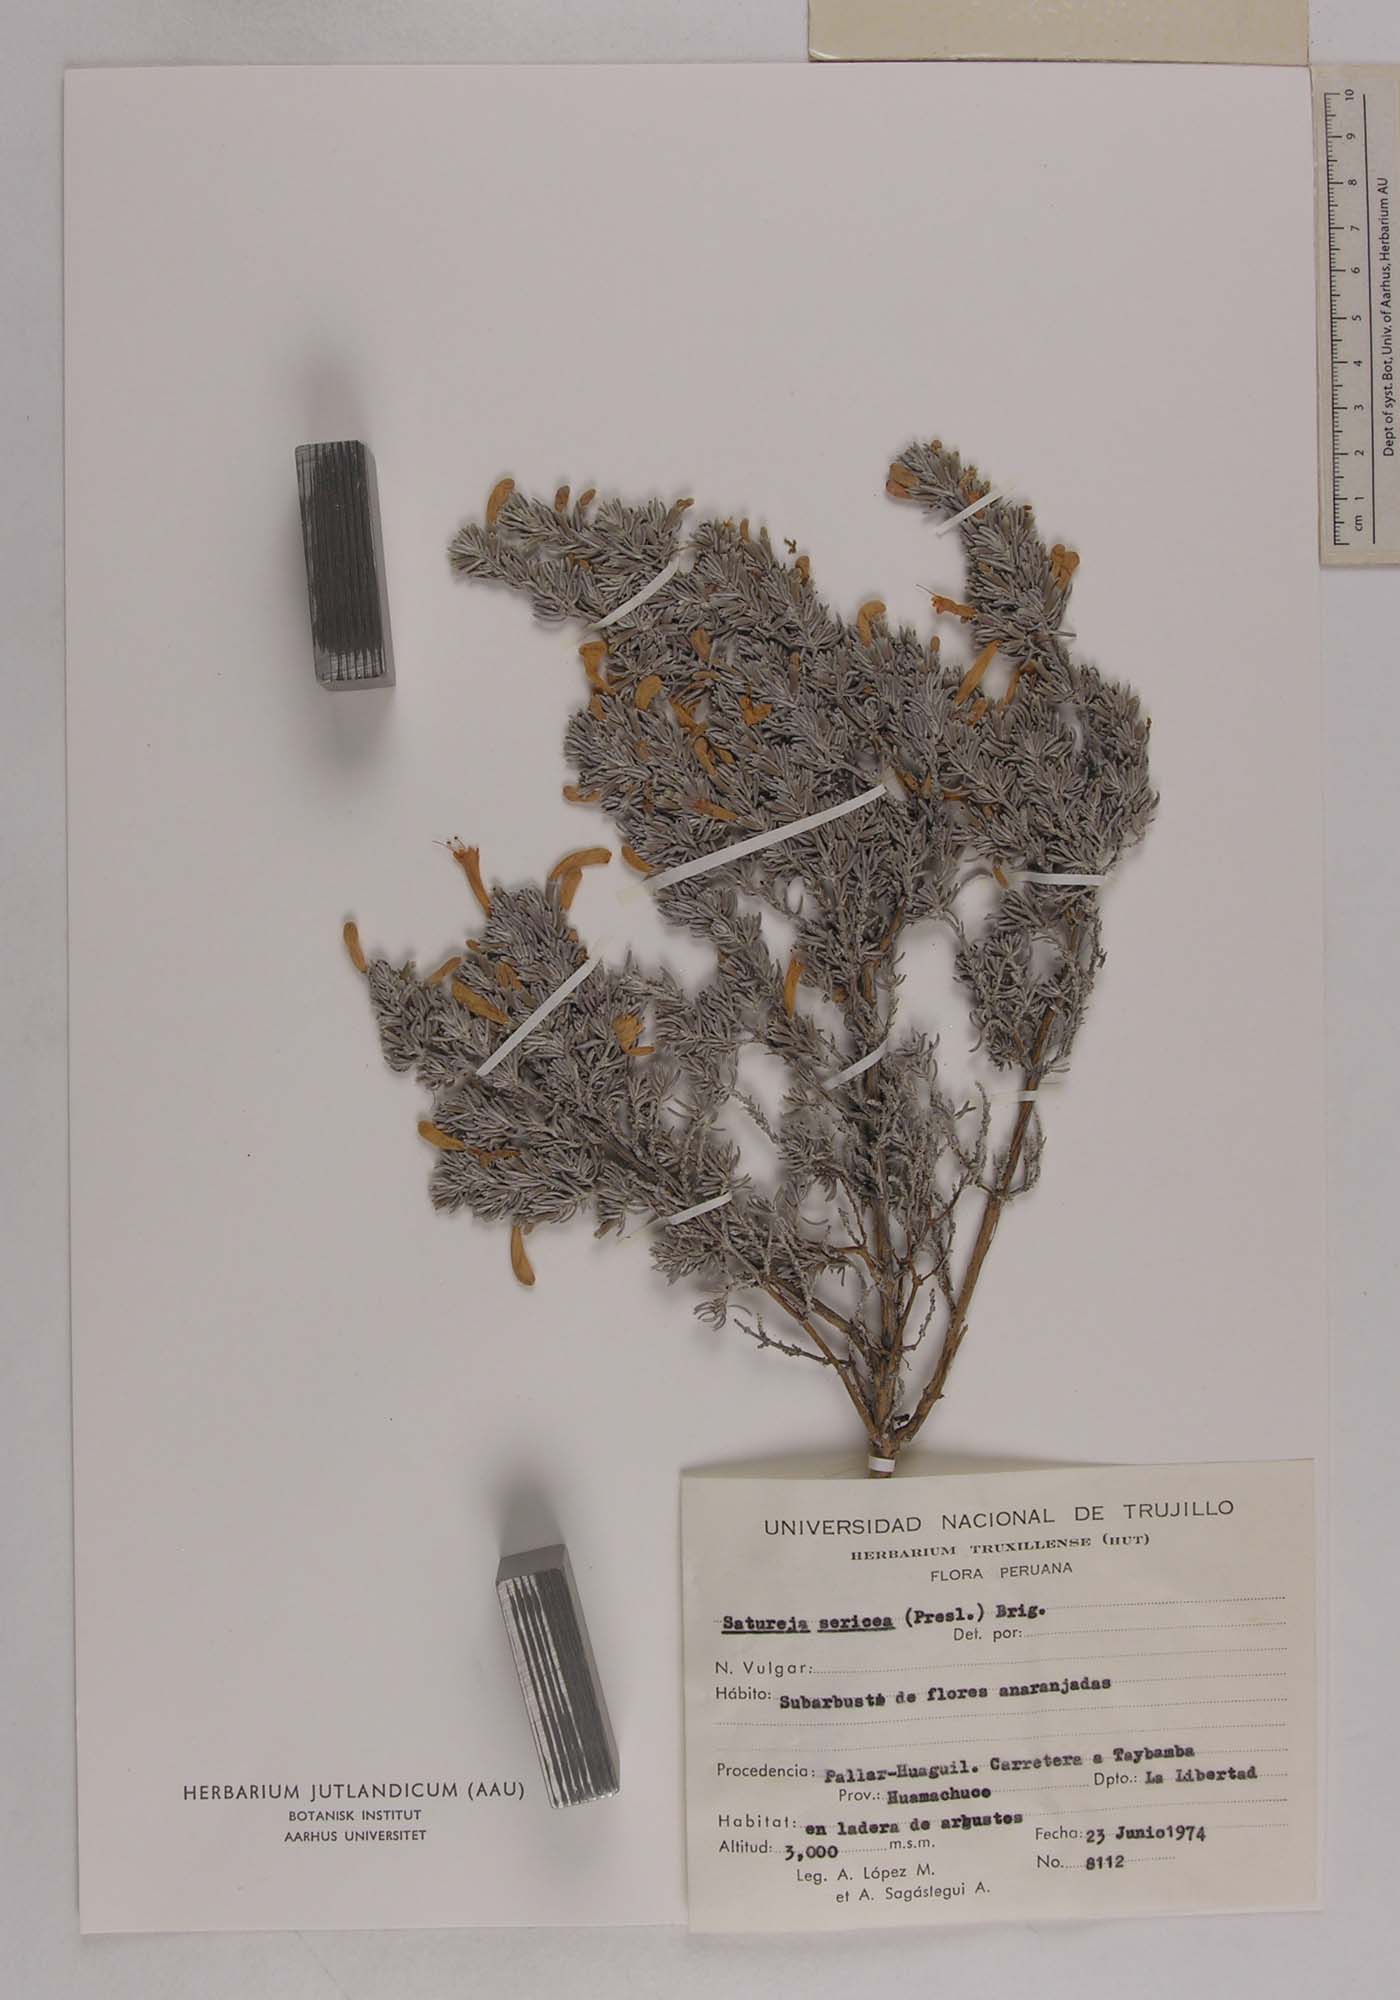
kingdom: Plantae
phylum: Tracheophyta
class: Magnoliopsida
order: Lamiales
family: Lamiaceae
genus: Clinopodium
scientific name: Clinopodium sericeum
